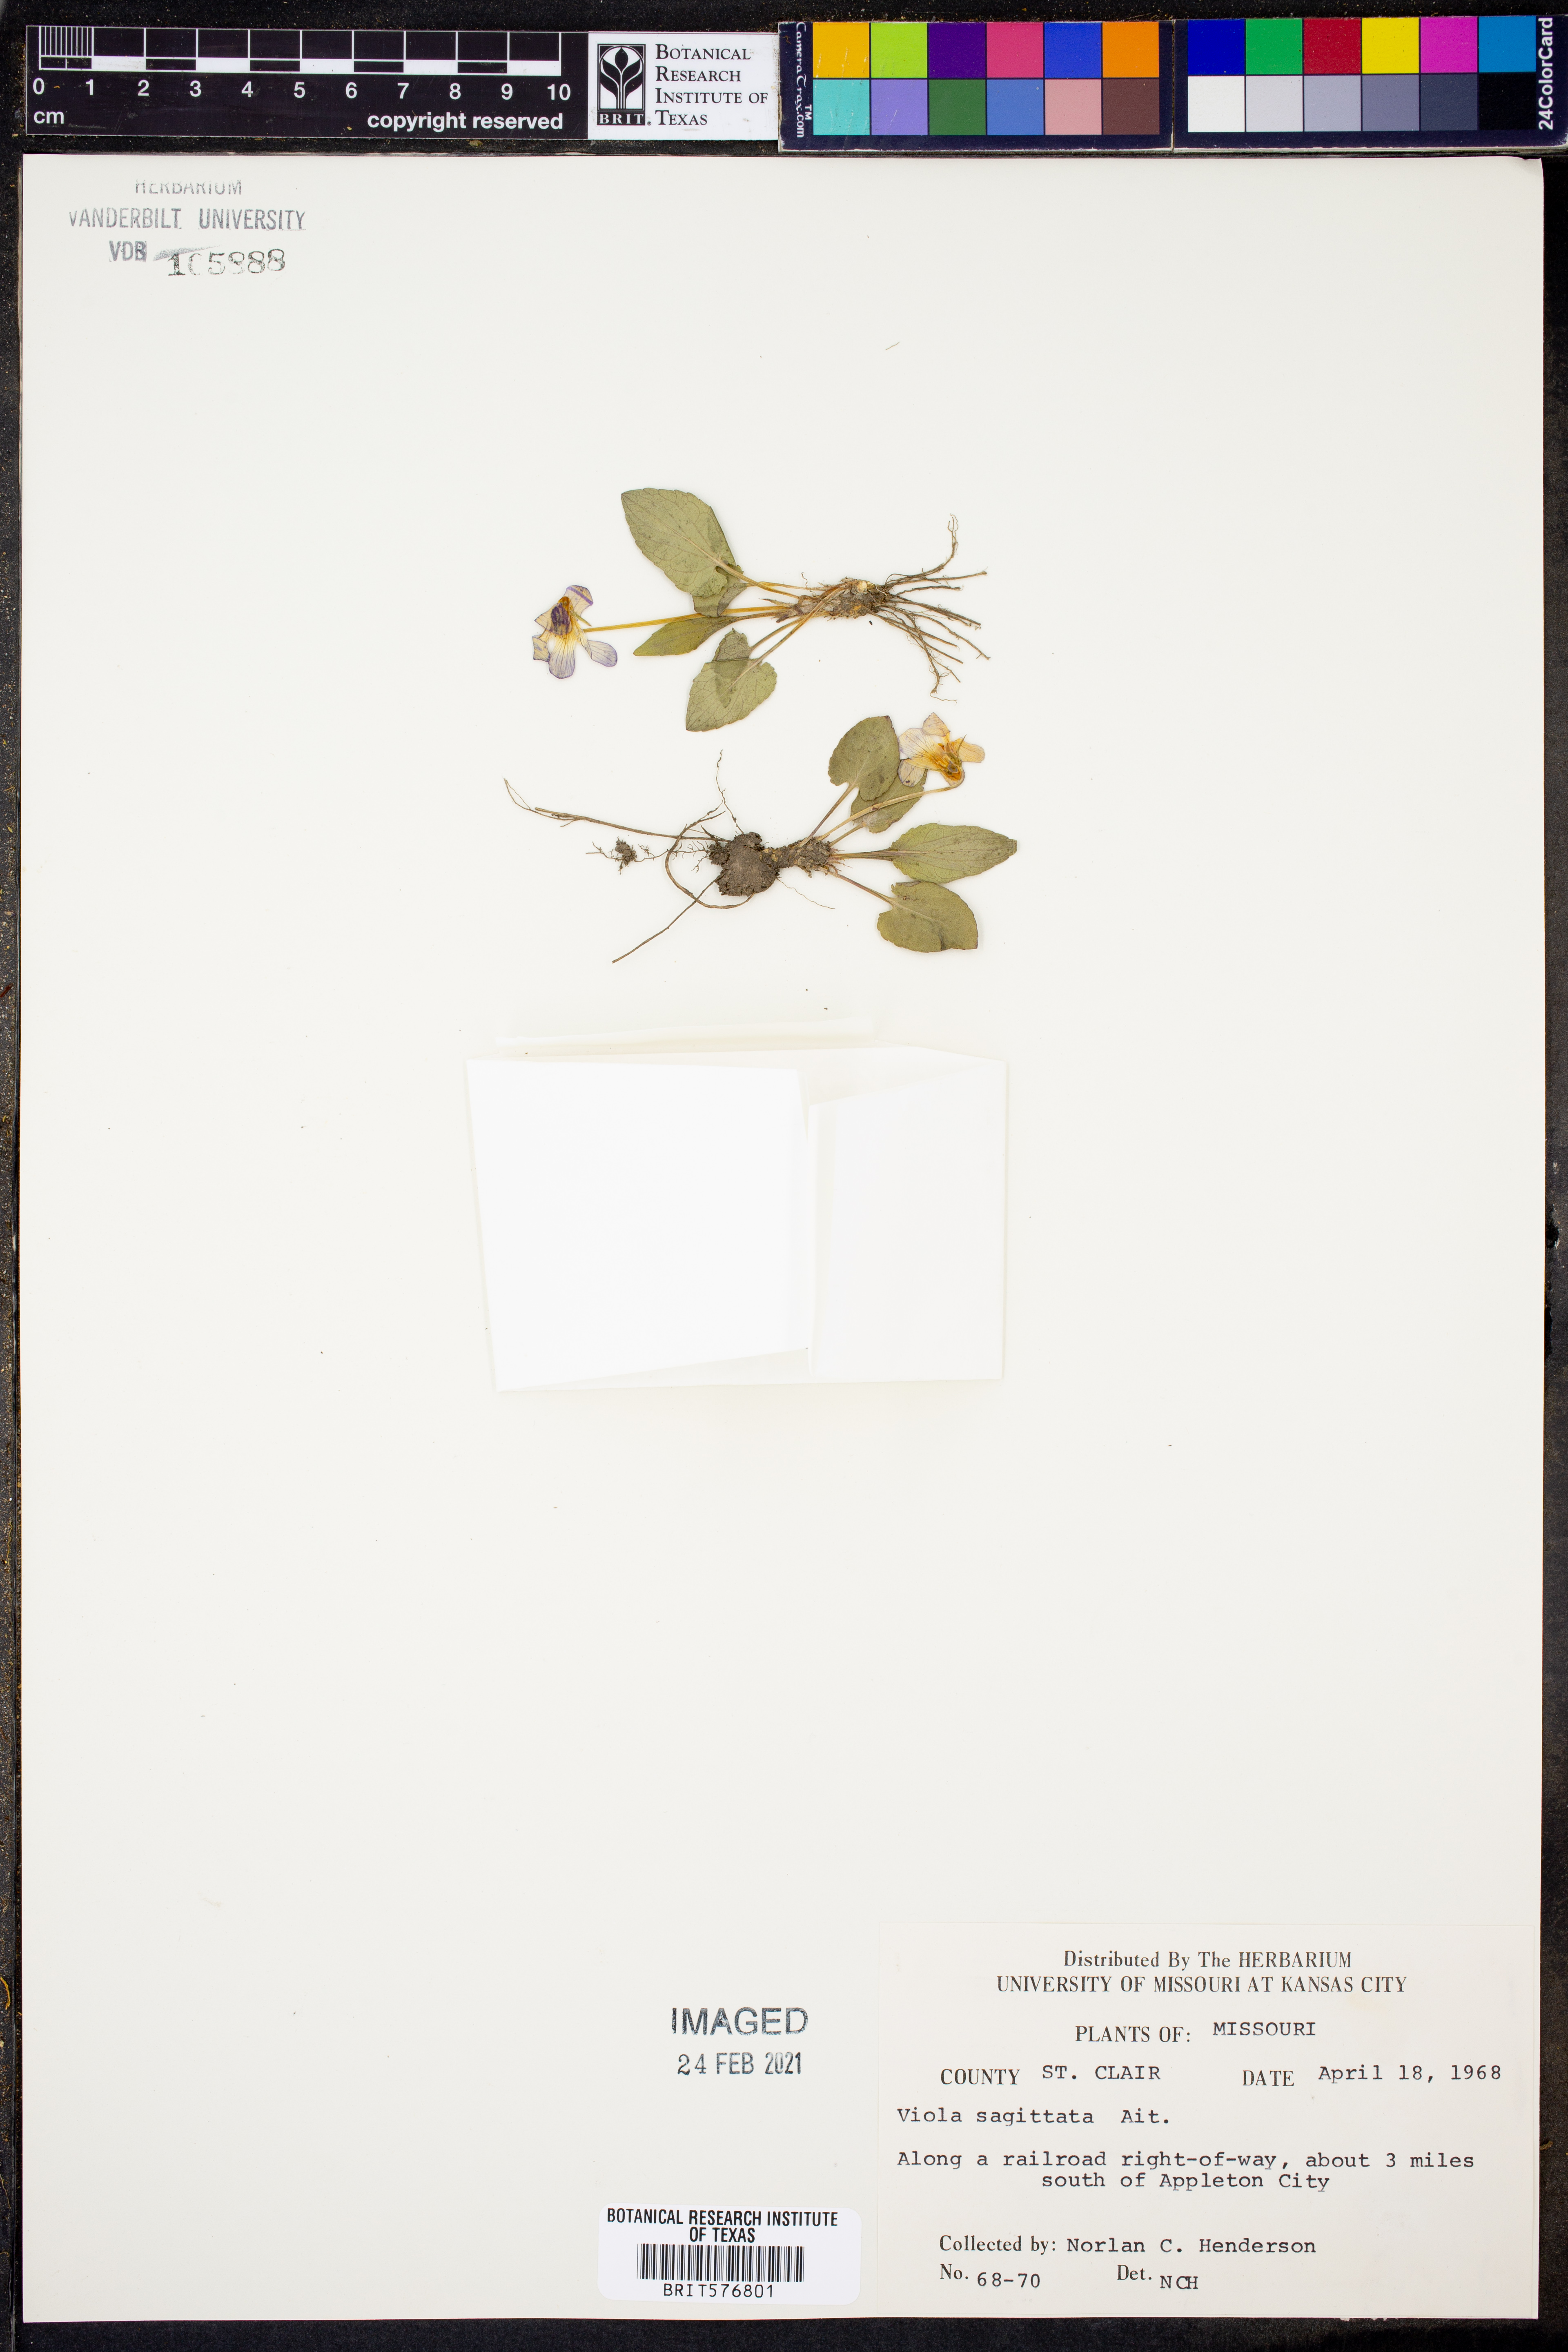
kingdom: Plantae
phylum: Tracheophyta
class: Magnoliopsida
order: Malpighiales
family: Violaceae
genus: Viola
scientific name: Viola sagittata
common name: Arrowhead violet
